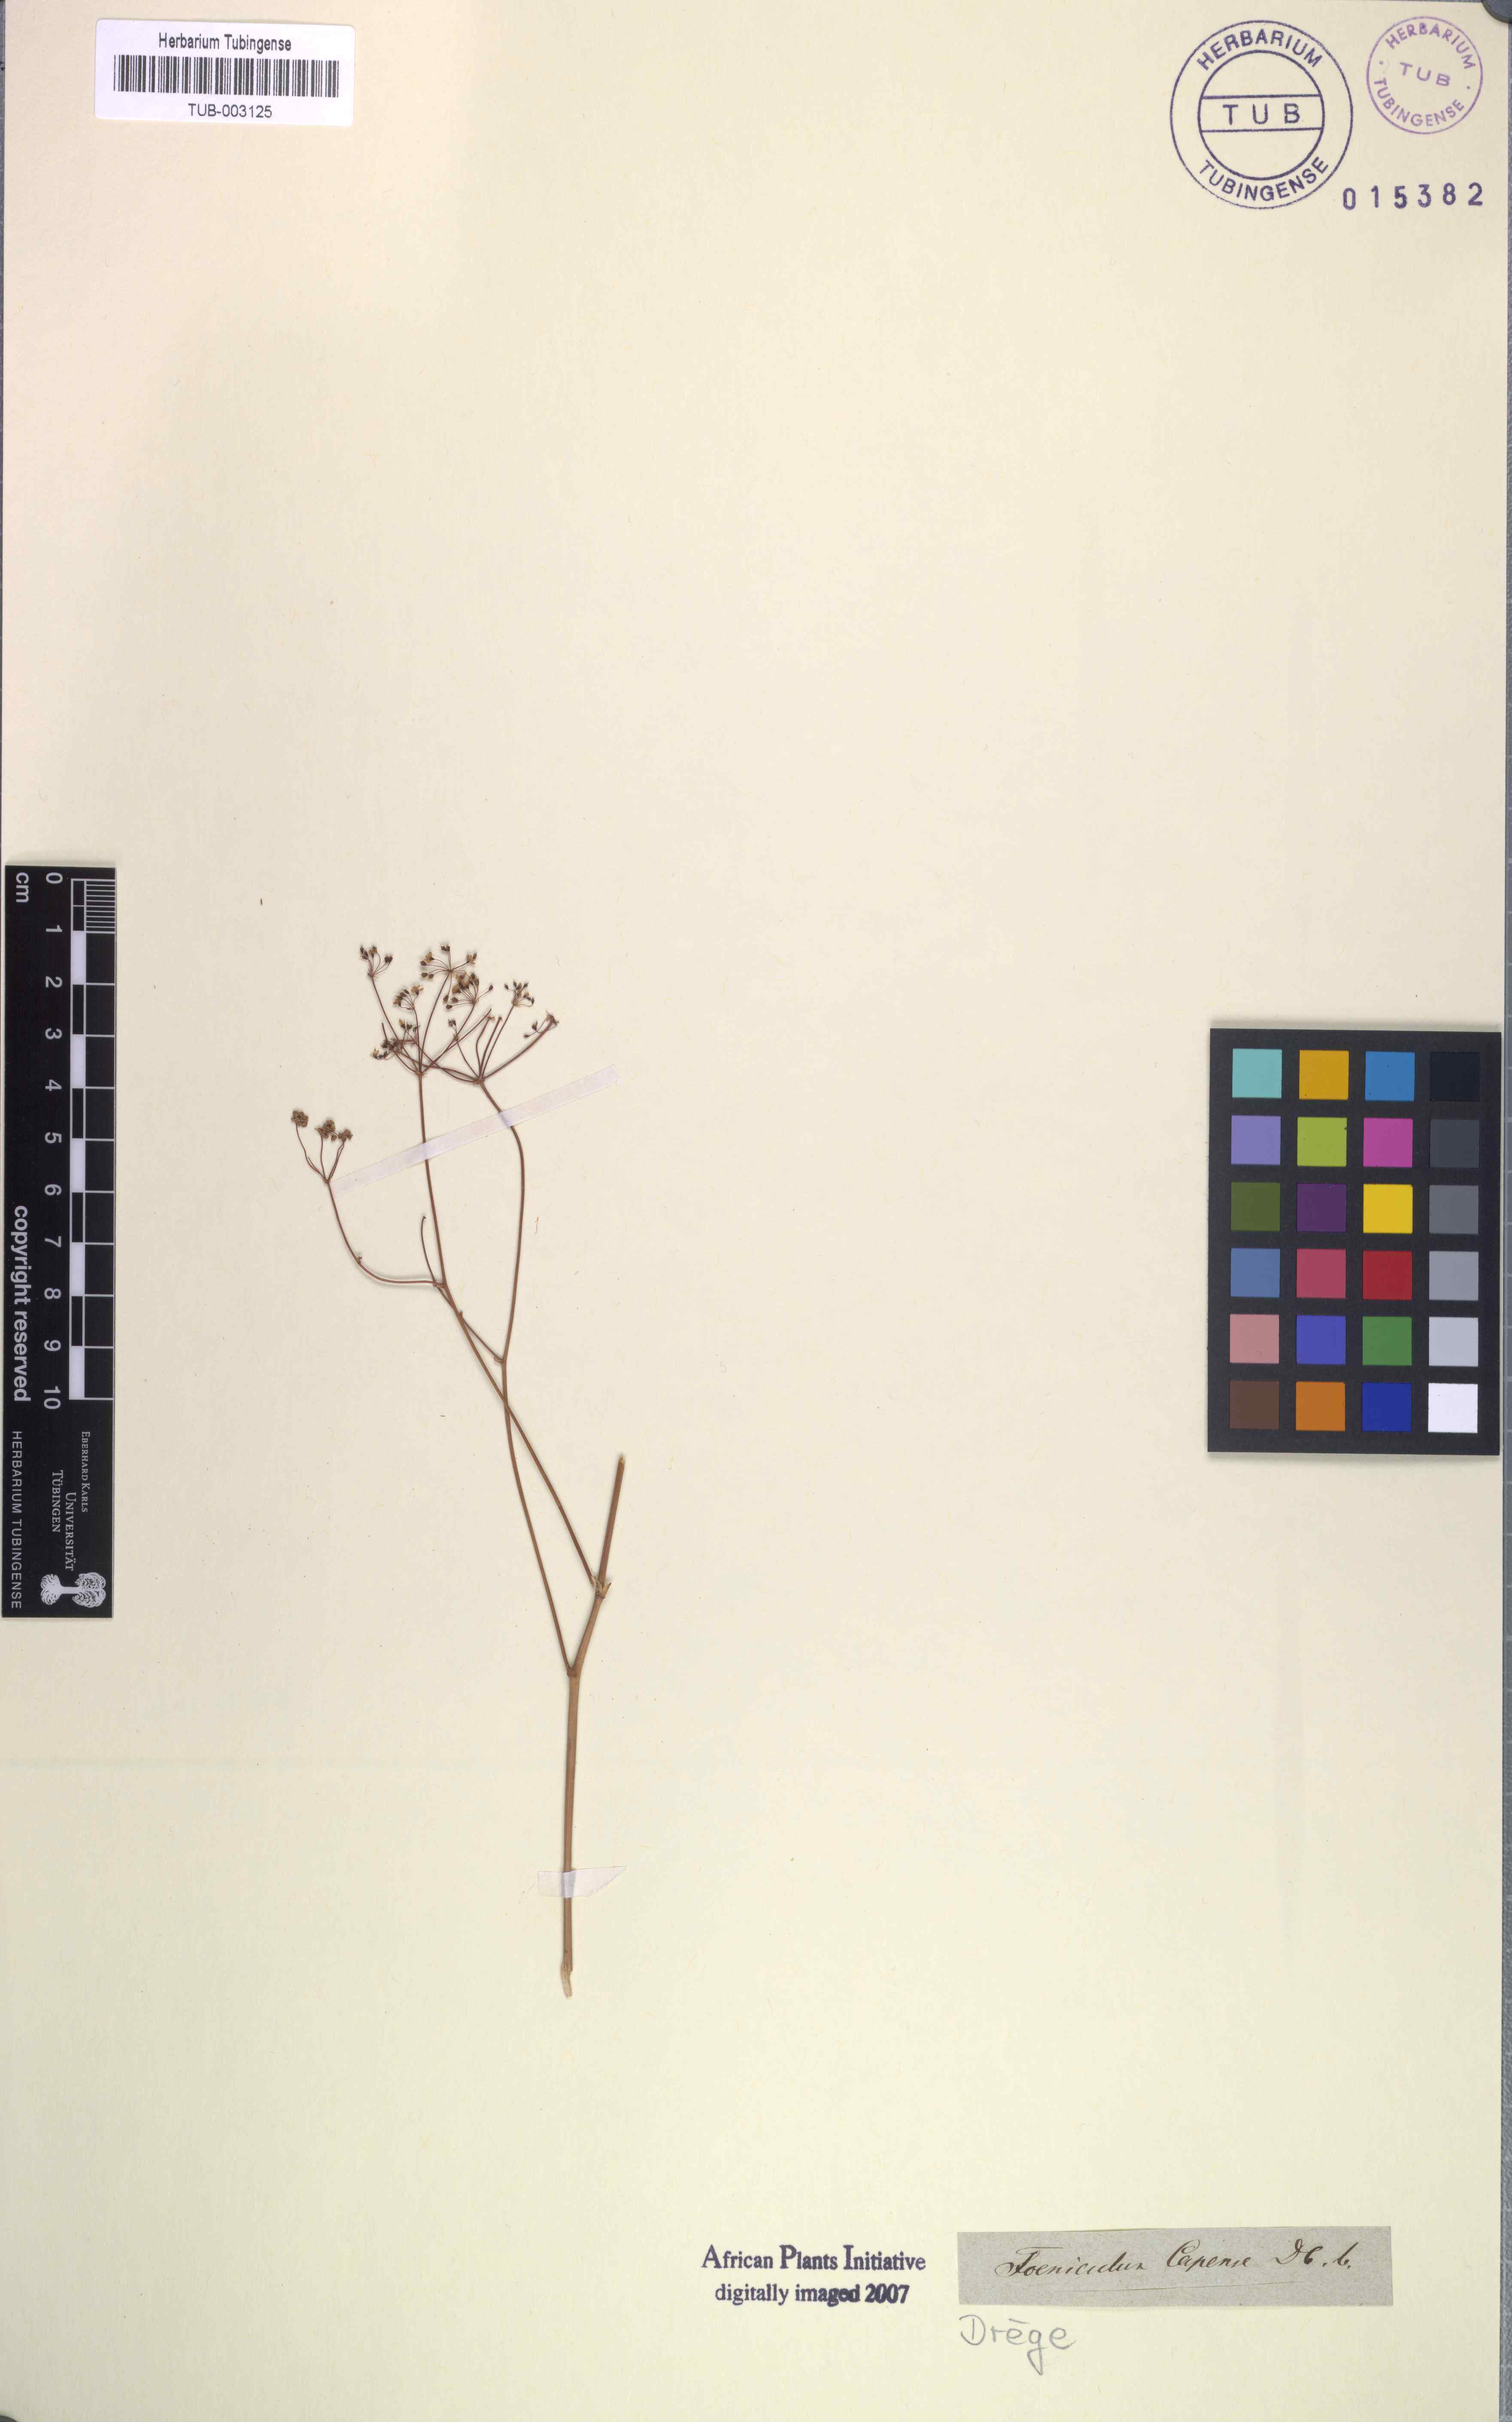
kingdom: Plantae
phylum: Tracheophyta
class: Magnoliopsida
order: Apiales
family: Apiaceae
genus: Chamarea
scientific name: Chamarea capensis
